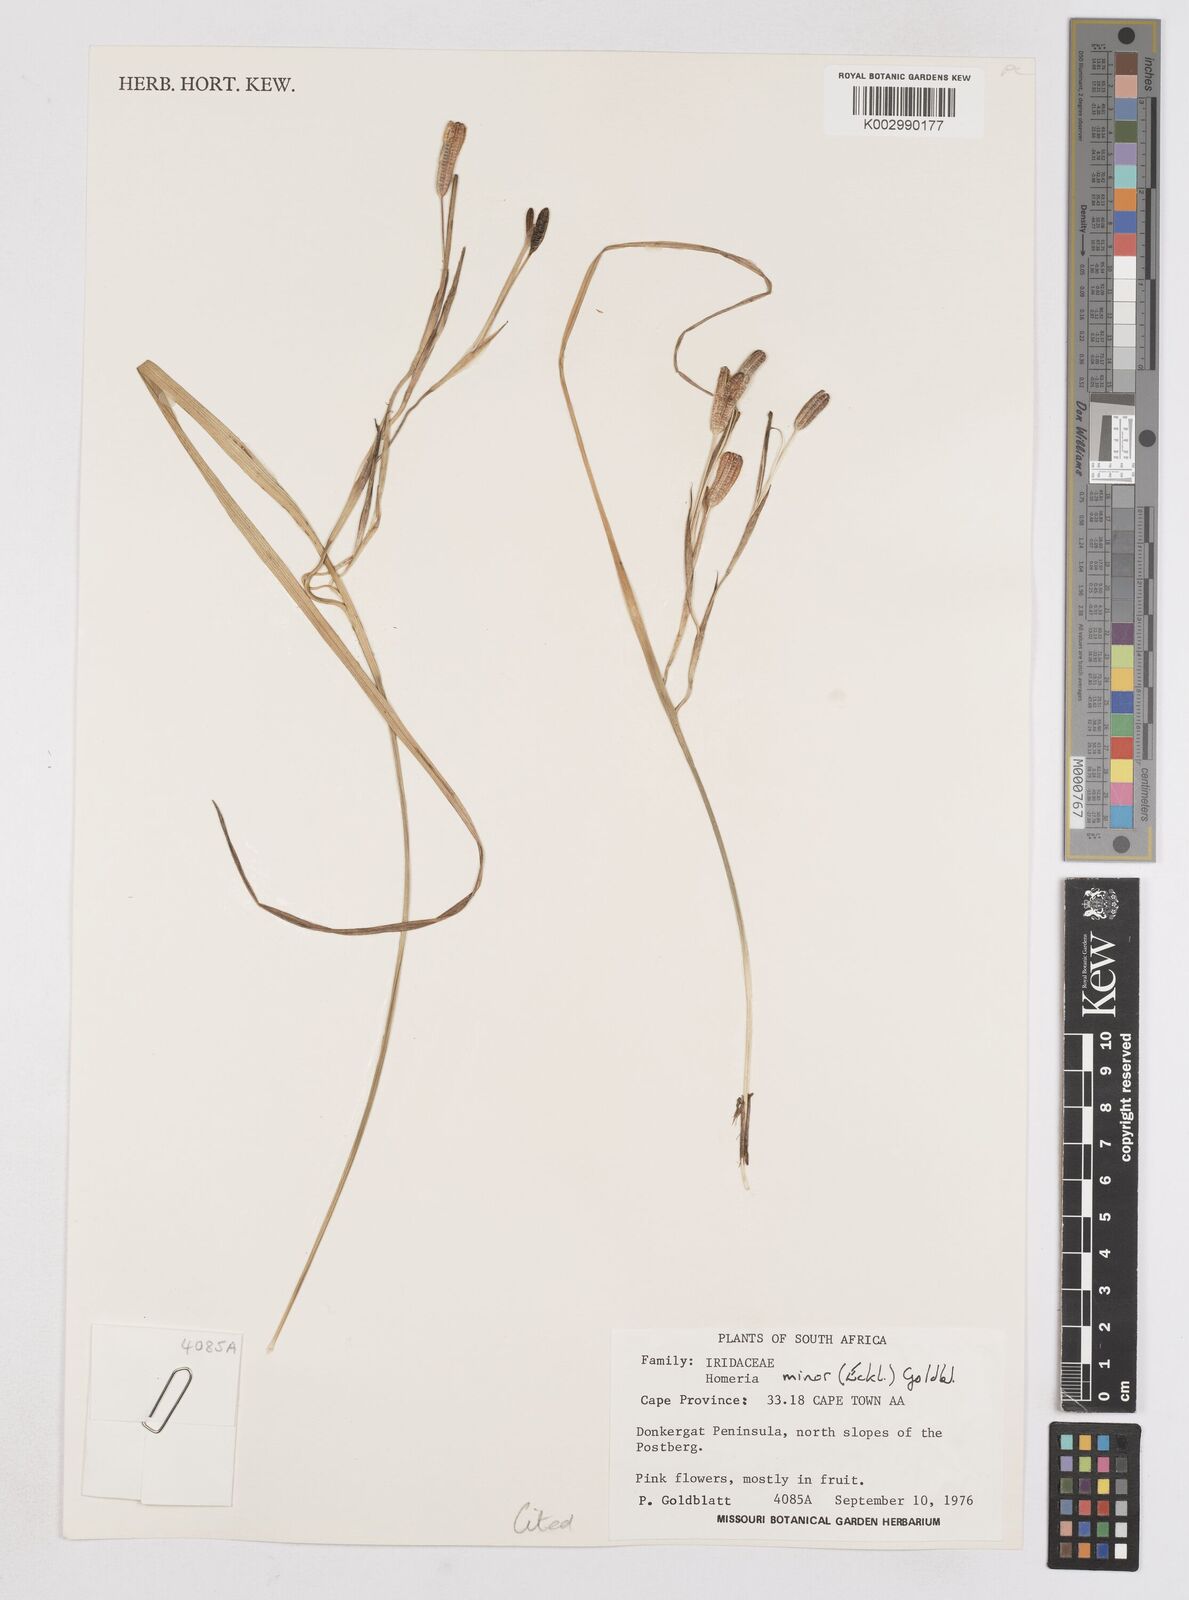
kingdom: Plantae
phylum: Tracheophyta
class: Liliopsida
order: Asparagales
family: Iridaceae
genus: Moraea
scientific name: Moraea minor
